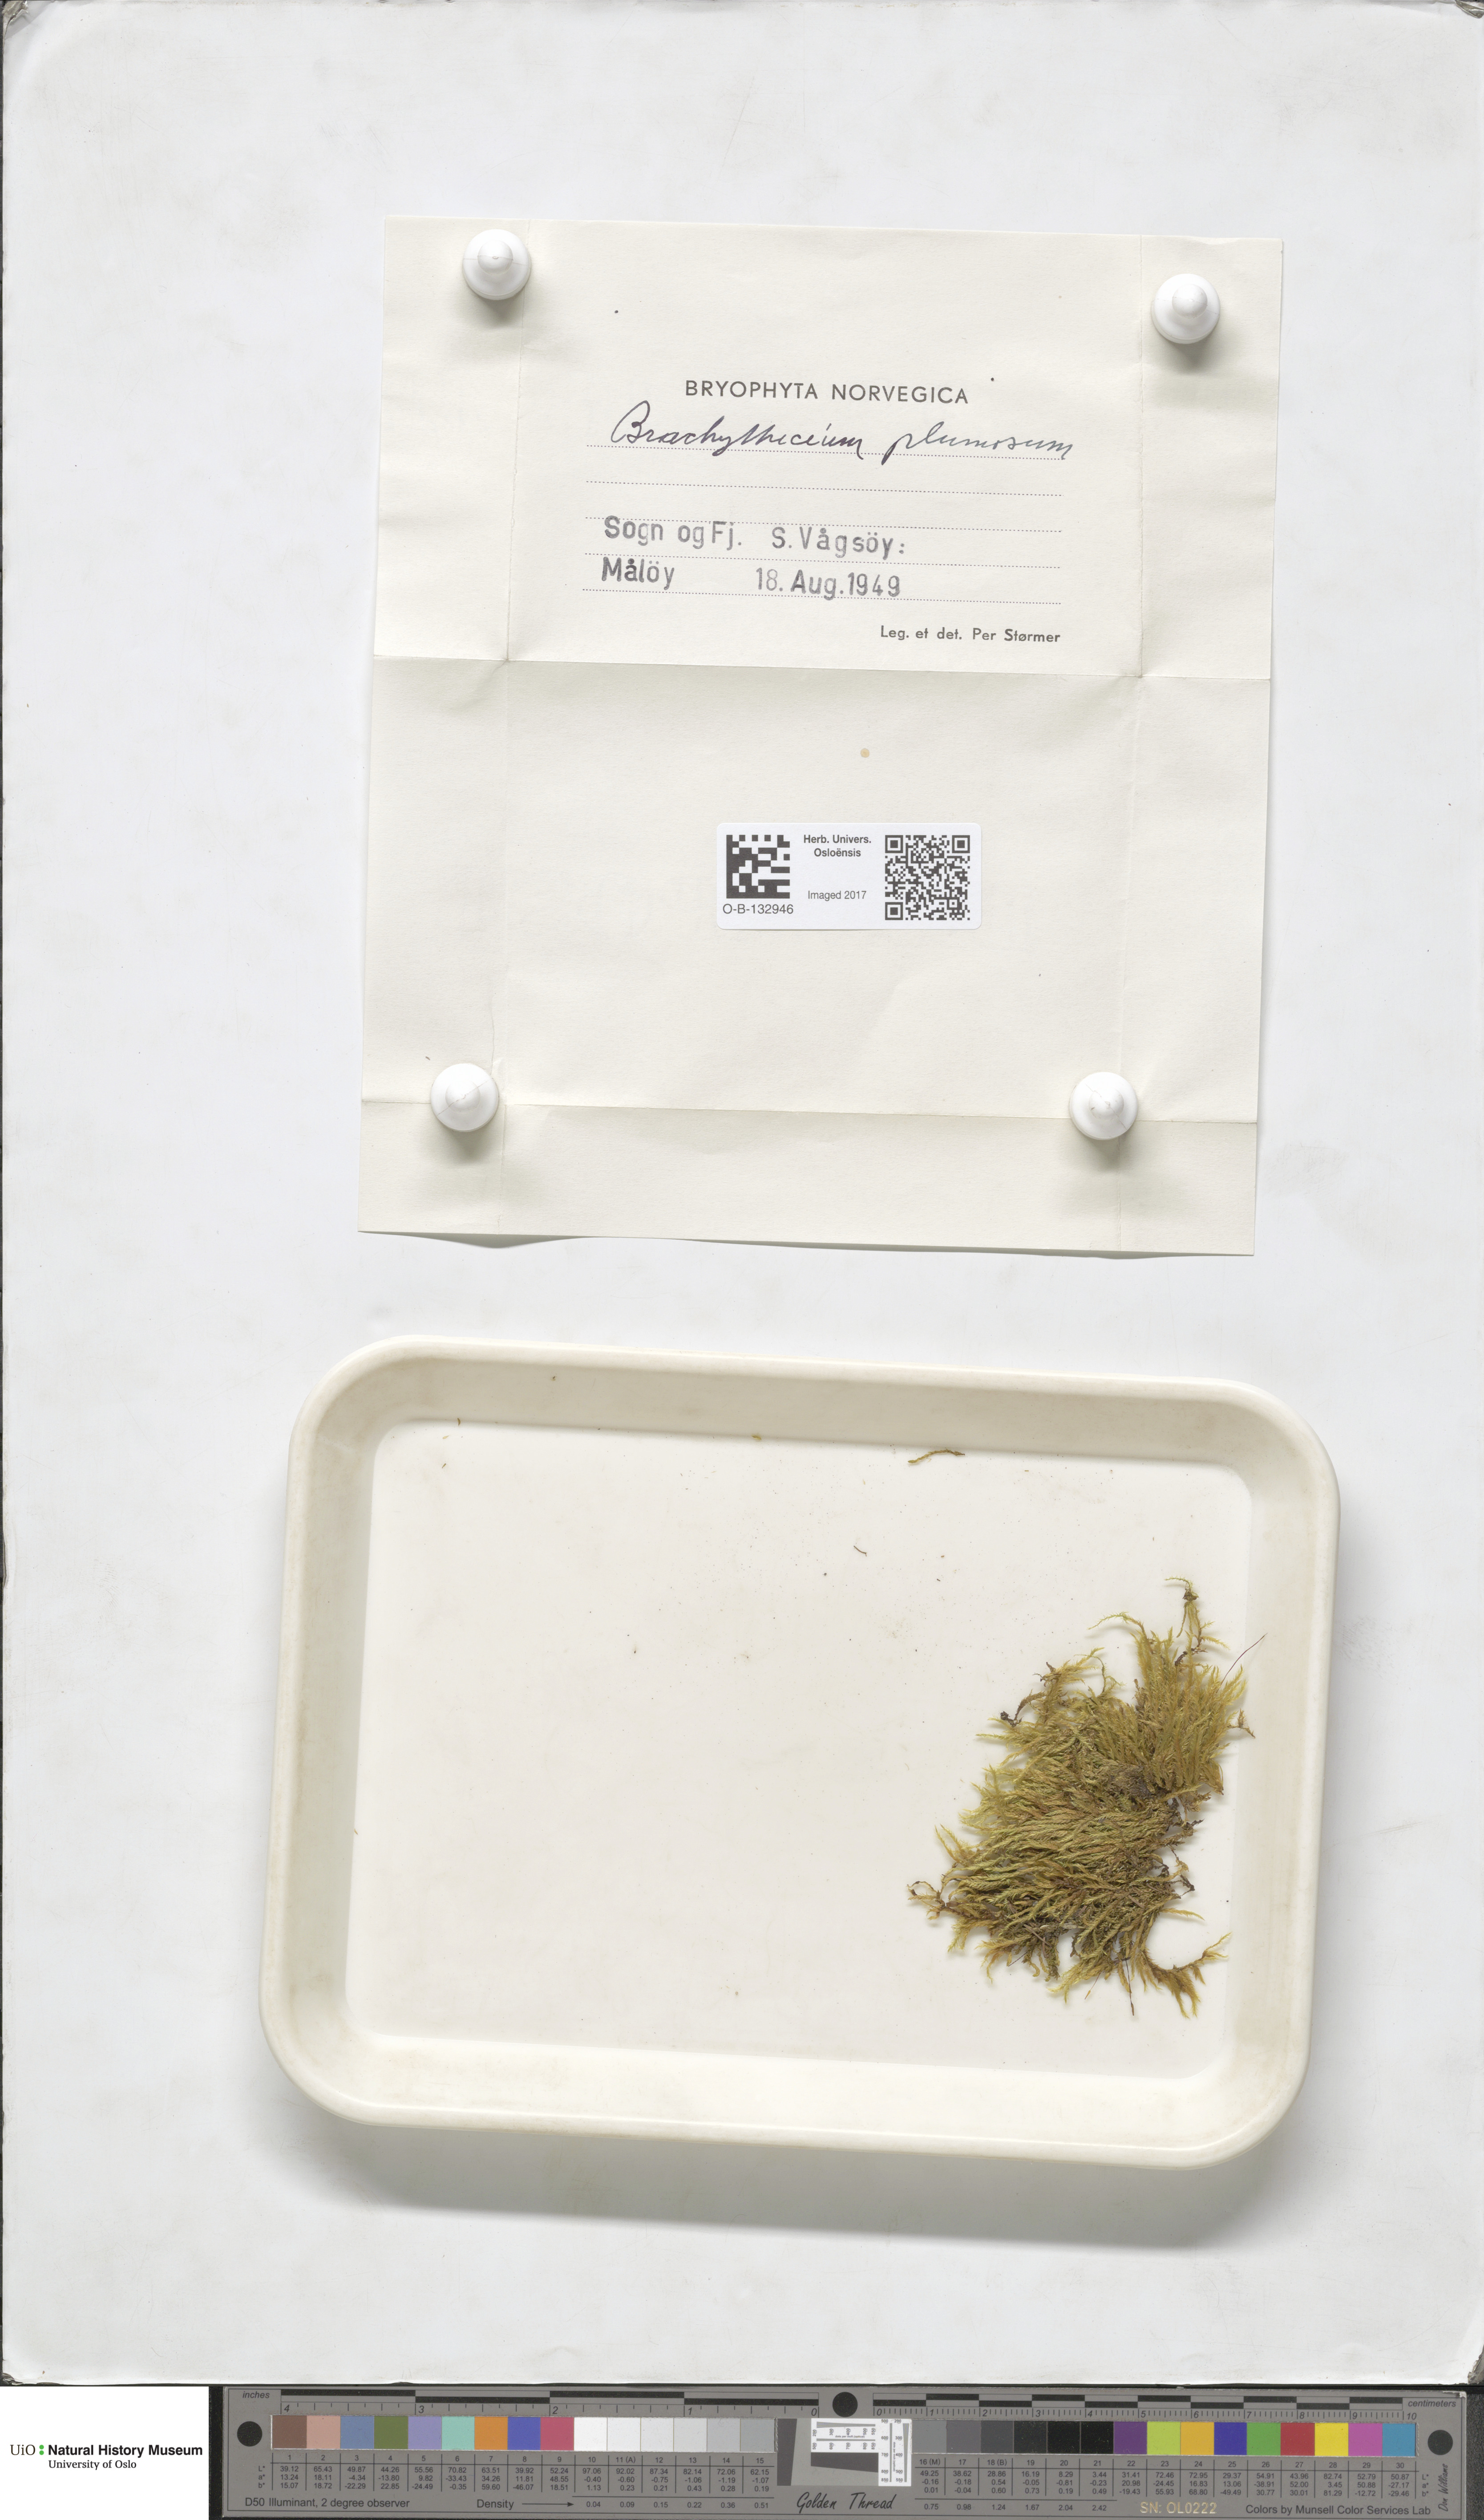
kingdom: Plantae
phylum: Bryophyta
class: Bryopsida
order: Hypnales
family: Brachytheciaceae
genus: Sciuro-hypnum
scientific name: Sciuro-hypnum plumosum
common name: Rusty feather-moss
